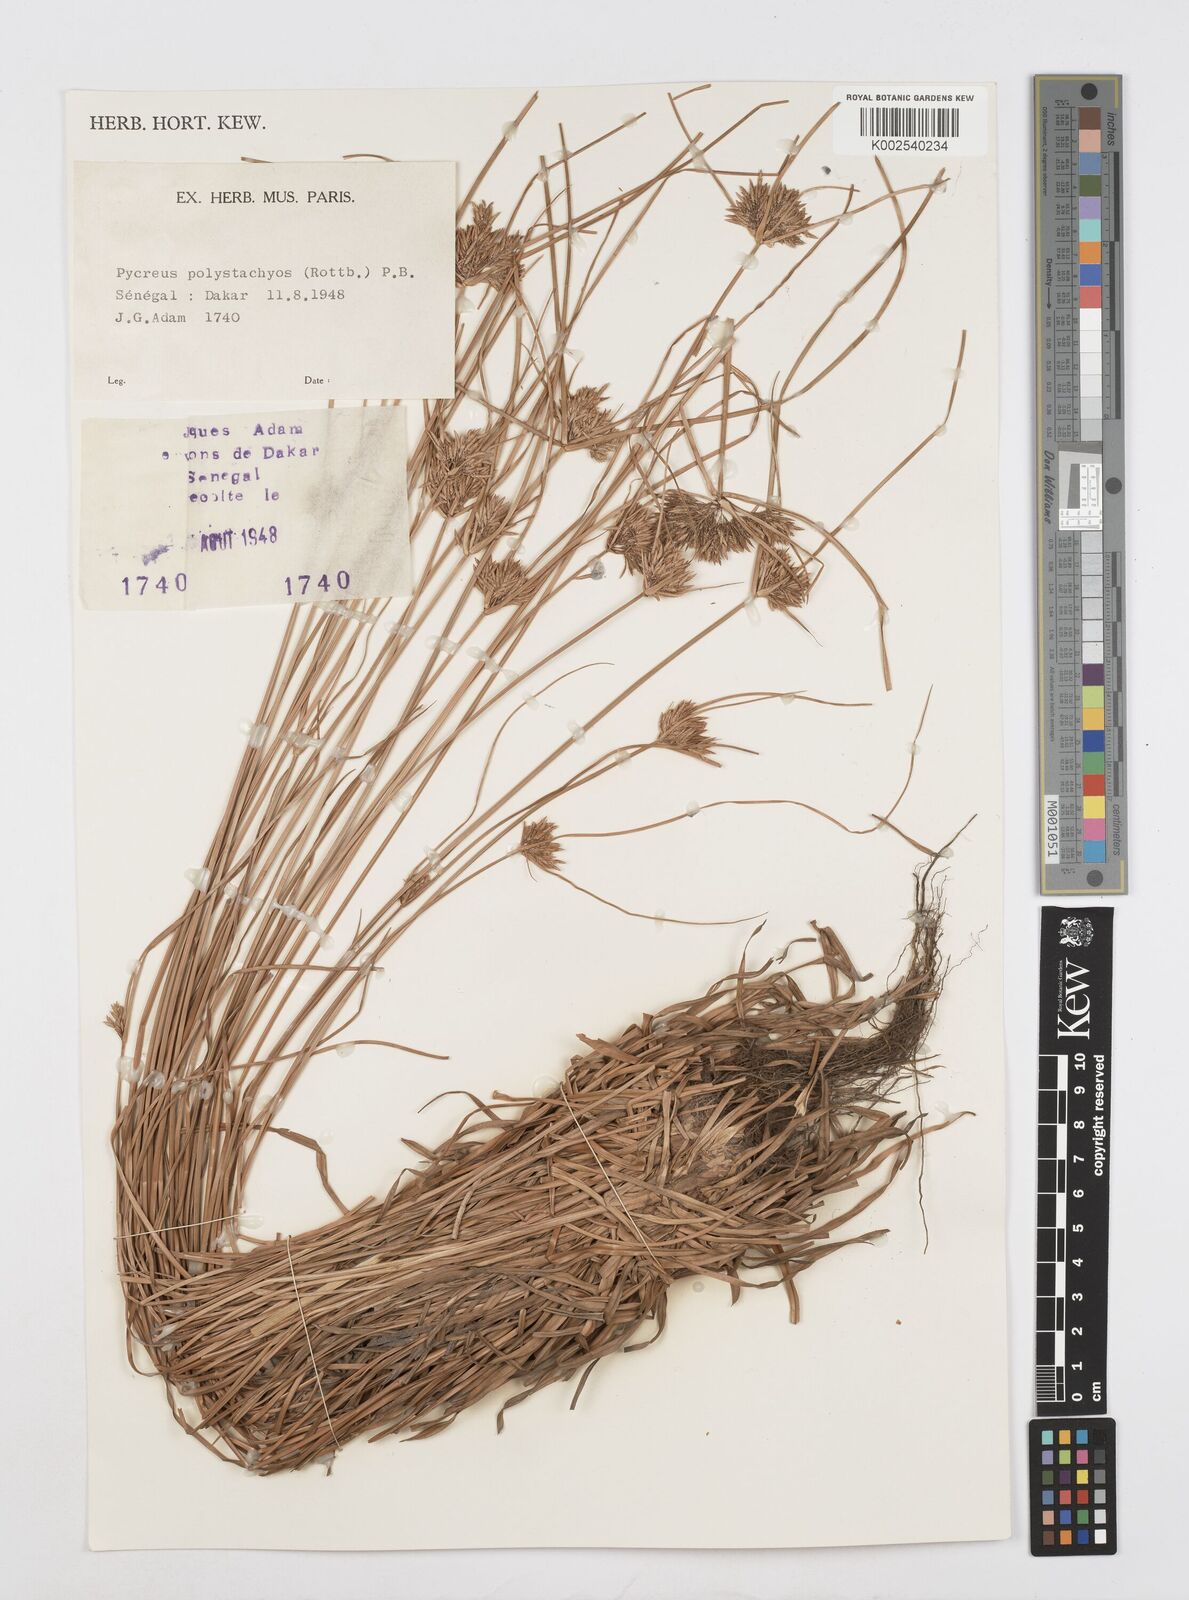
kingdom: Plantae
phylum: Tracheophyta
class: Liliopsida
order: Poales
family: Cyperaceae
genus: Cyperus
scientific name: Cyperus polystachyos
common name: Bunchy flat sedge
